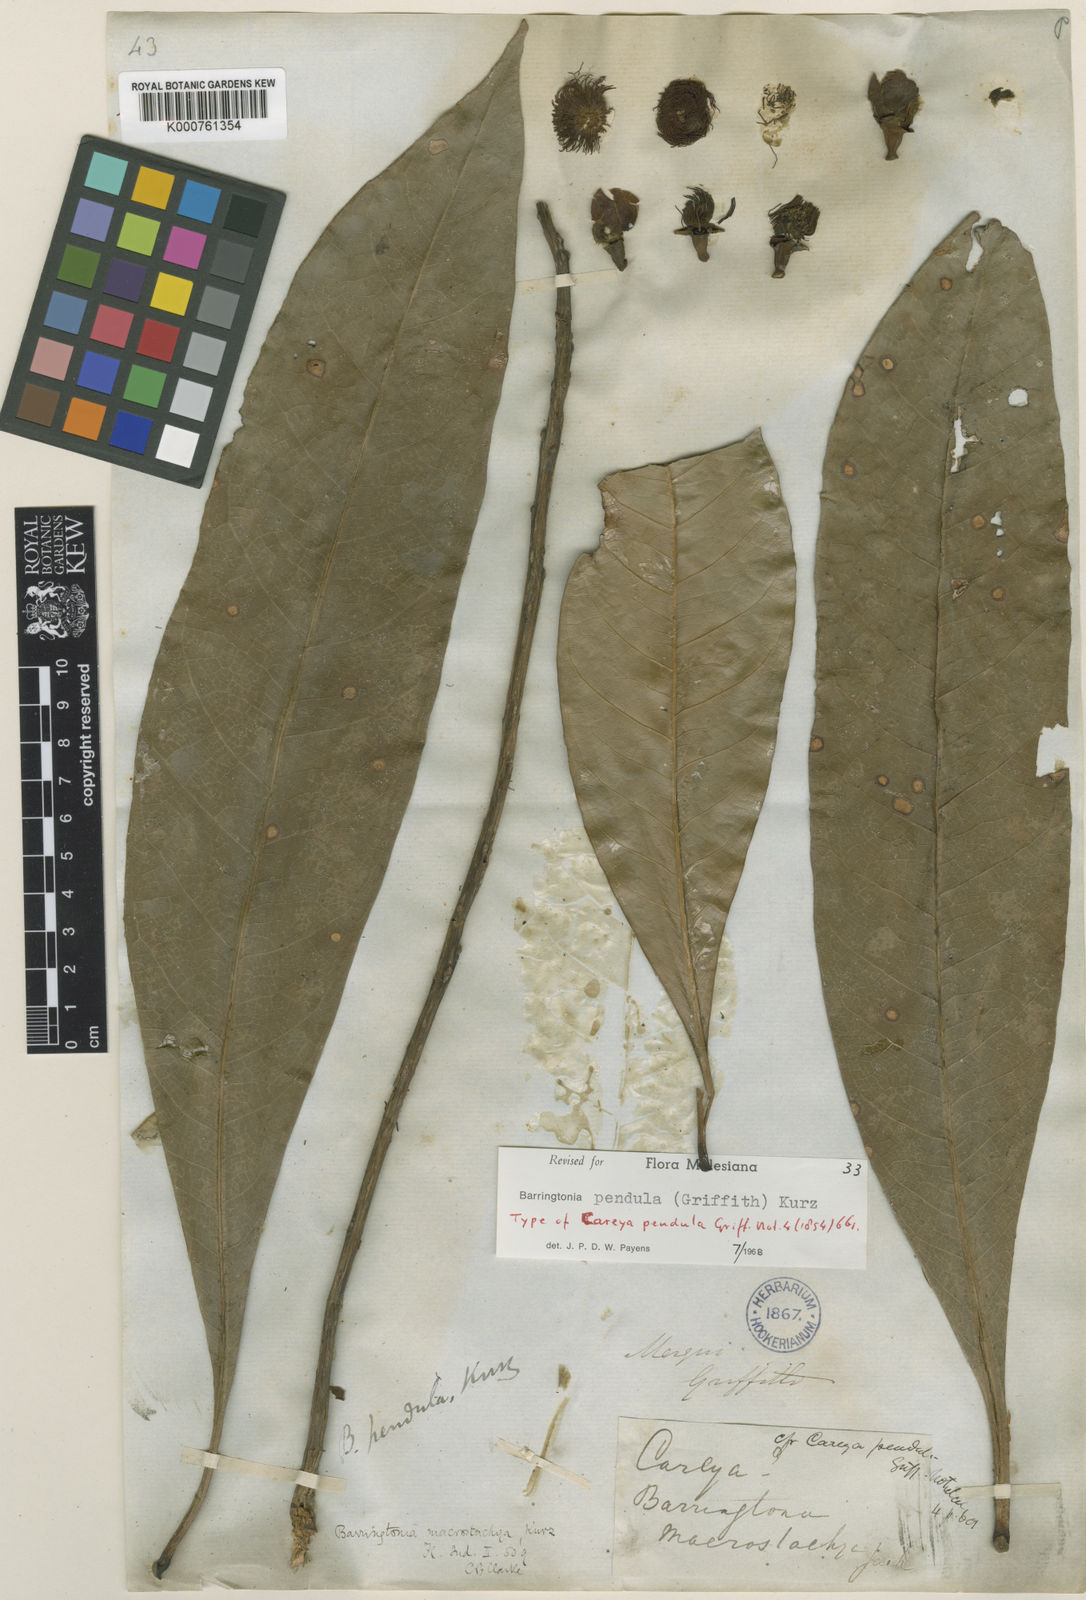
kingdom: Plantae
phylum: Tracheophyta
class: Magnoliopsida
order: Ericales
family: Lecythidaceae
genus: Barringtonia
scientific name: Barringtonia pendula
